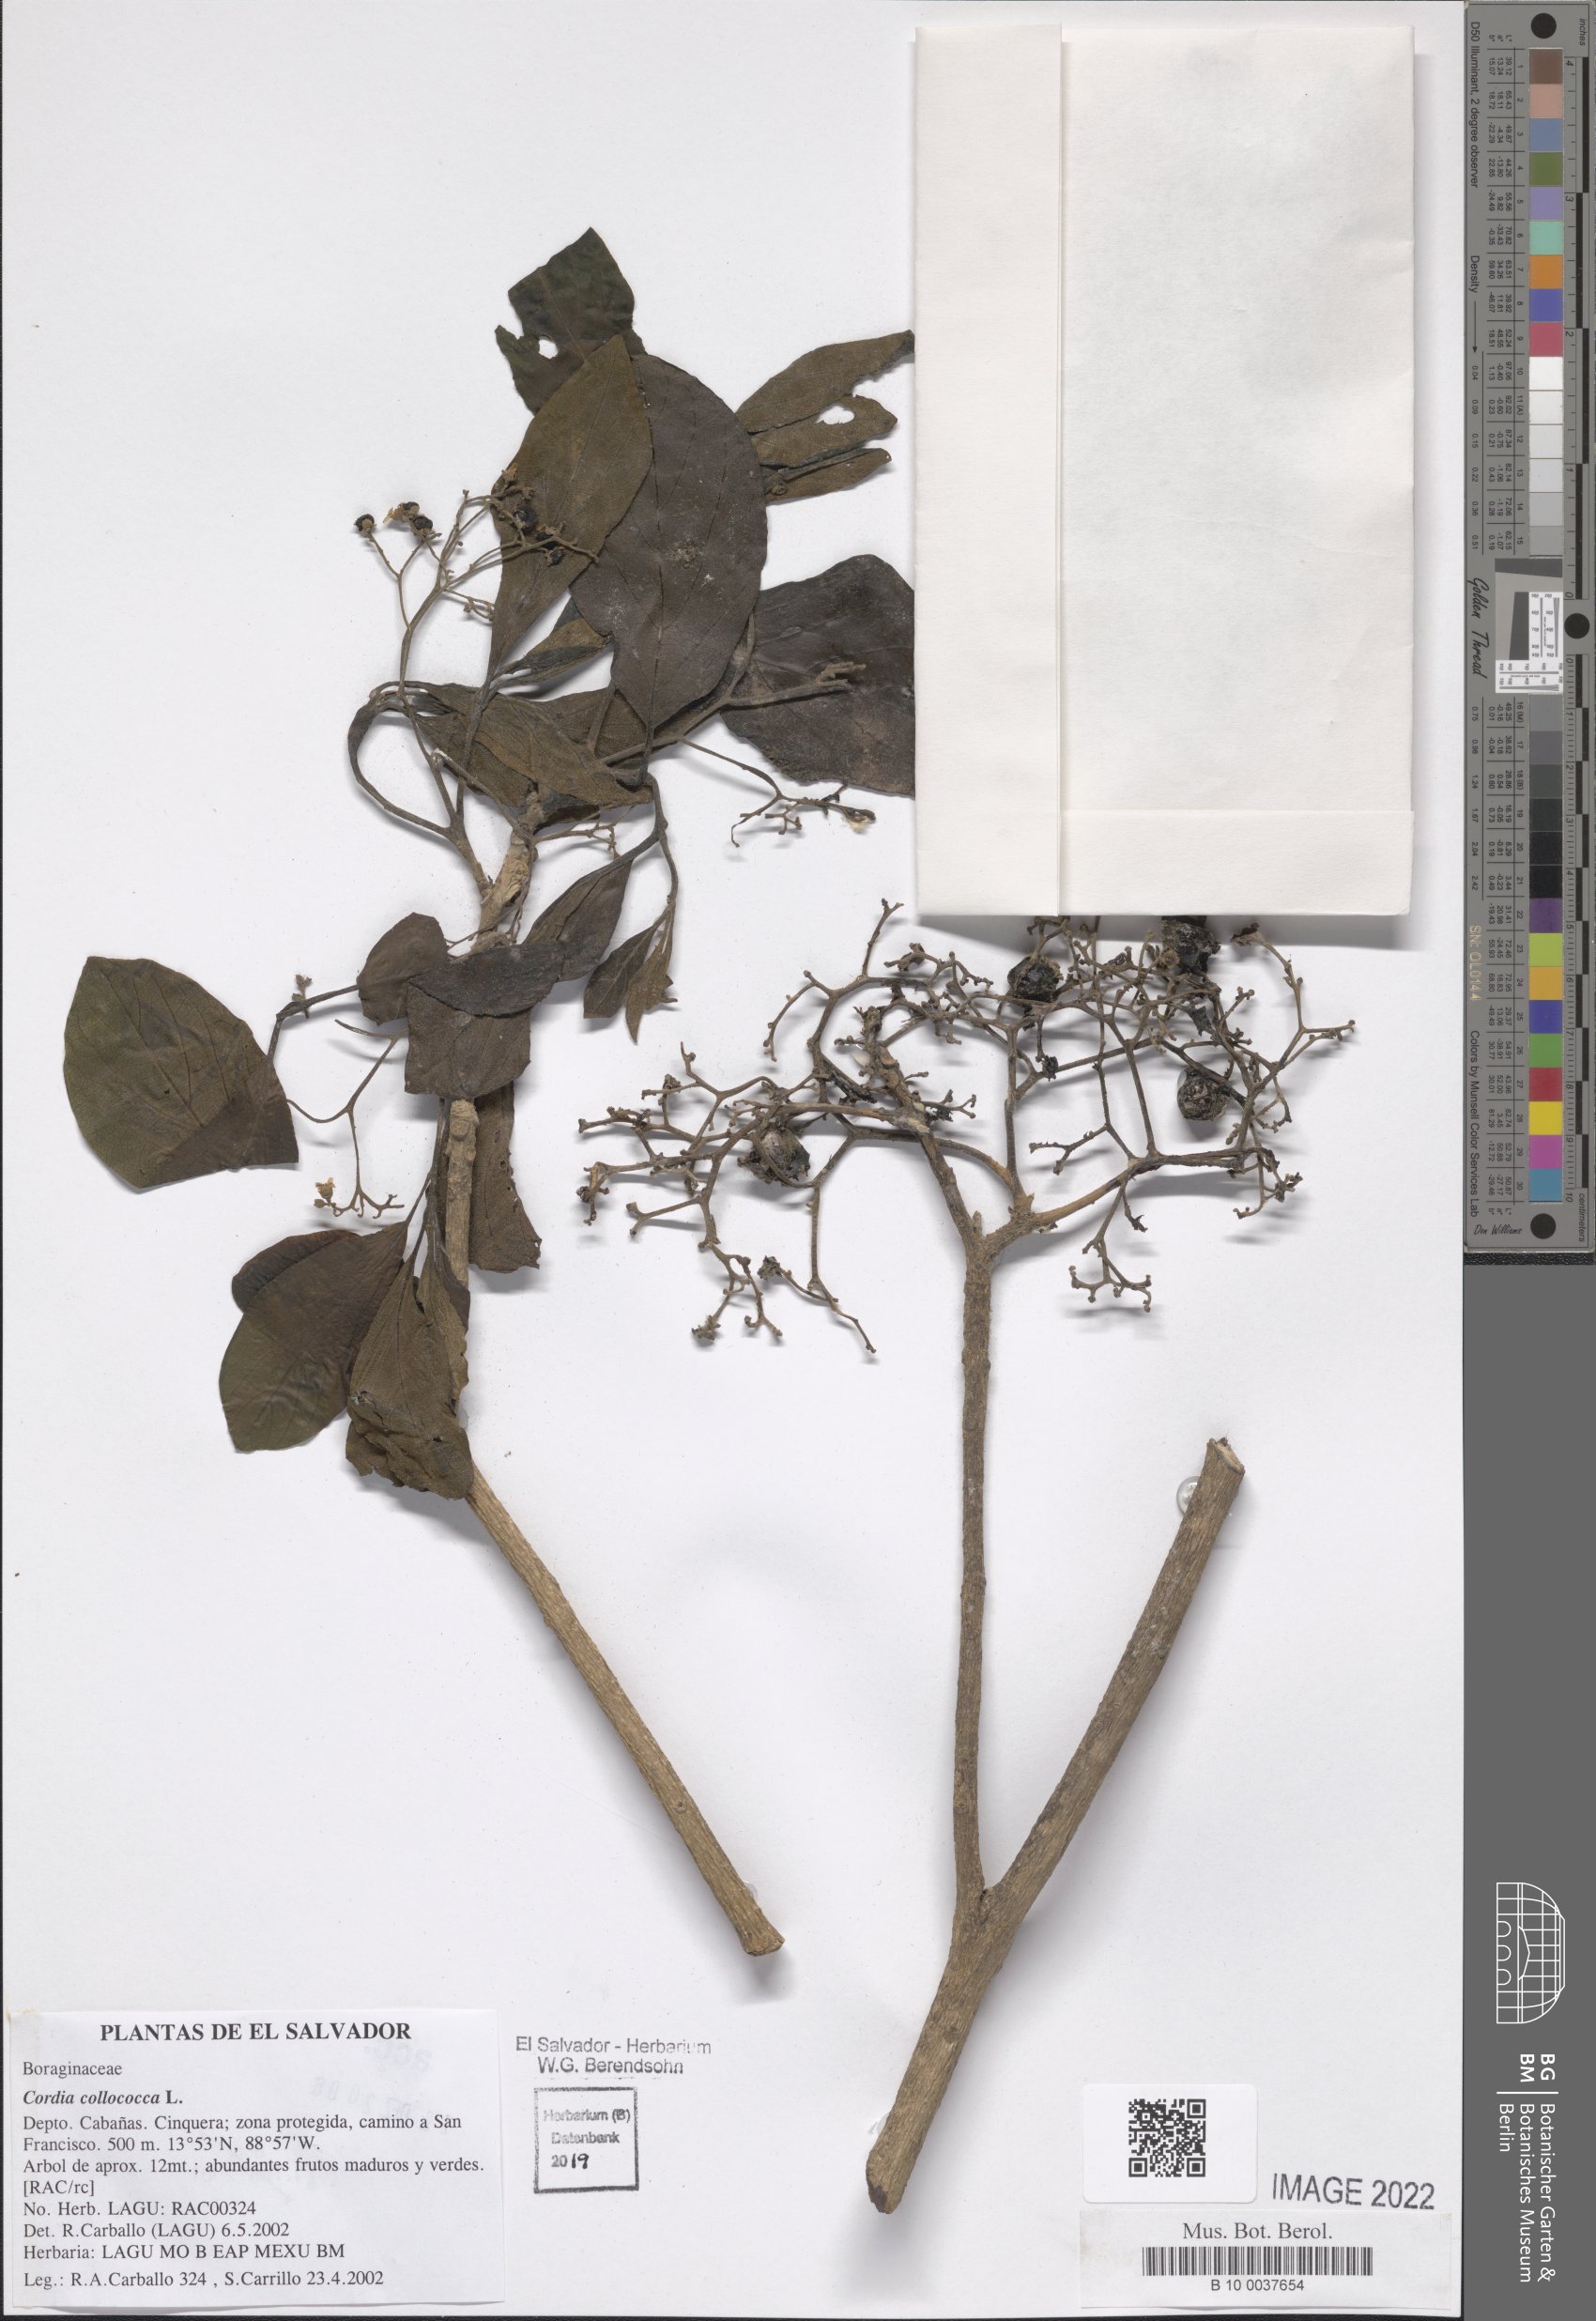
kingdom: Plantae
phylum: Tracheophyta
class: Magnoliopsida
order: Boraginales
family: Cordiaceae
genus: Cordia
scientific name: Cordia collococca
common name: Clammy cherry
